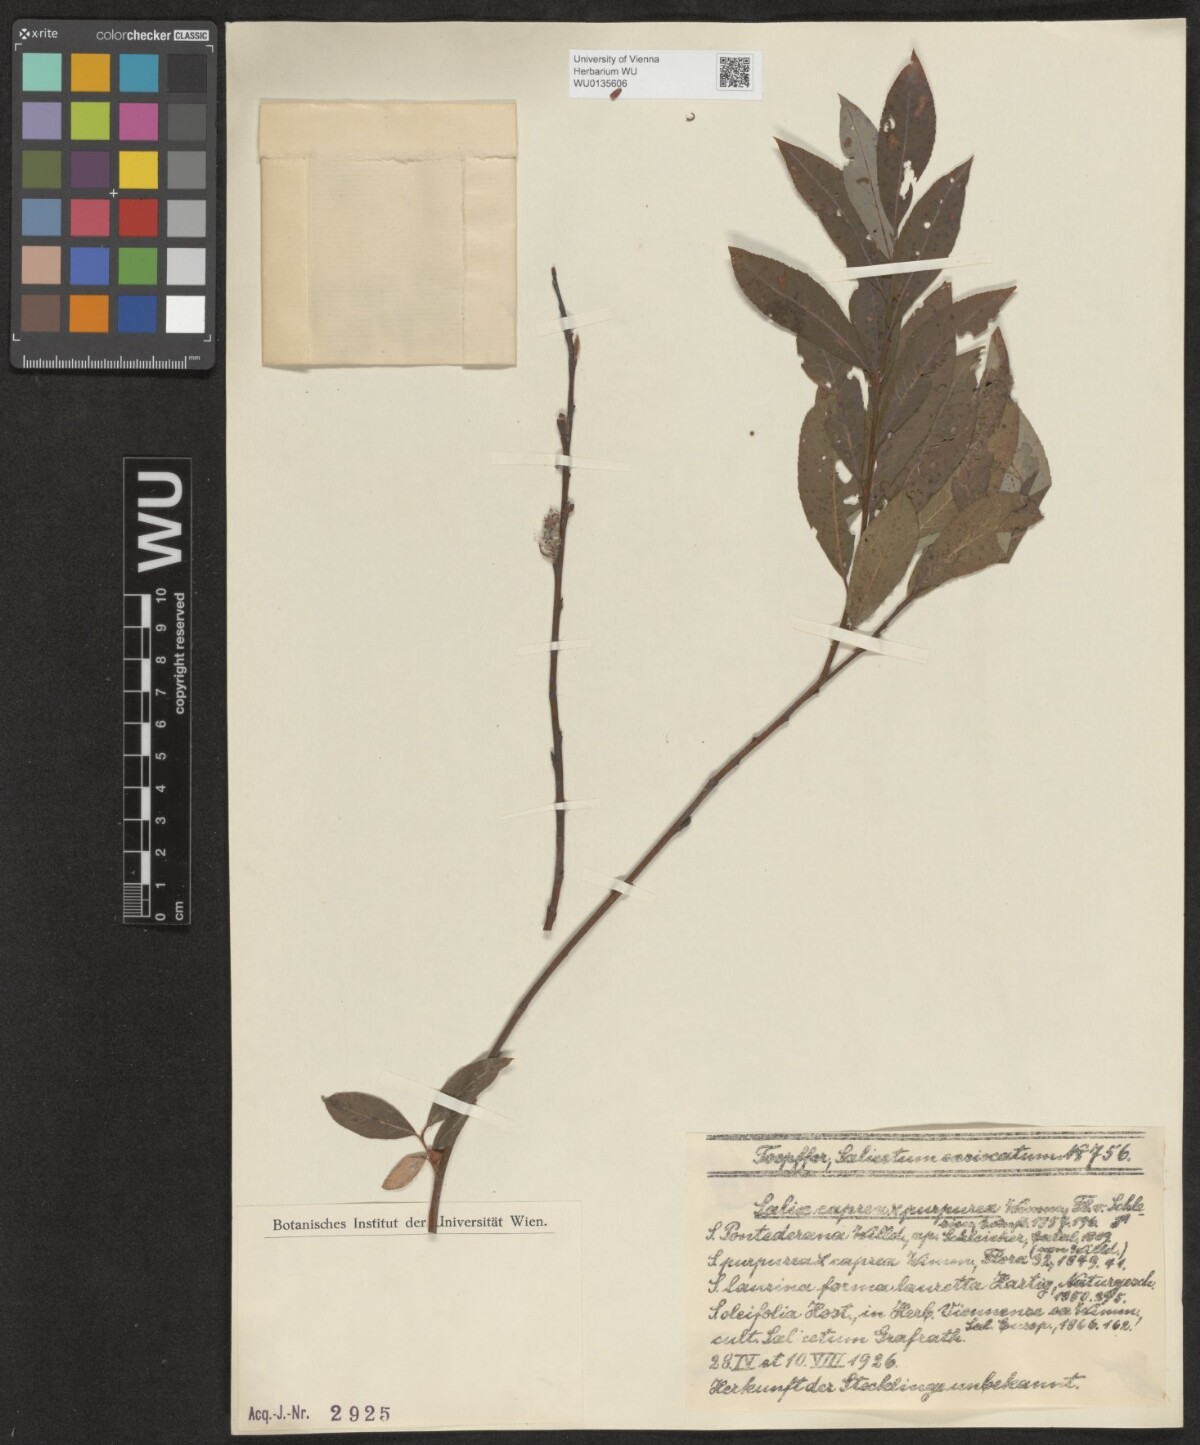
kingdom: Plantae
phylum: Tracheophyta
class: Magnoliopsida
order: Malpighiales
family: Salicaceae
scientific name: Salicaceae
